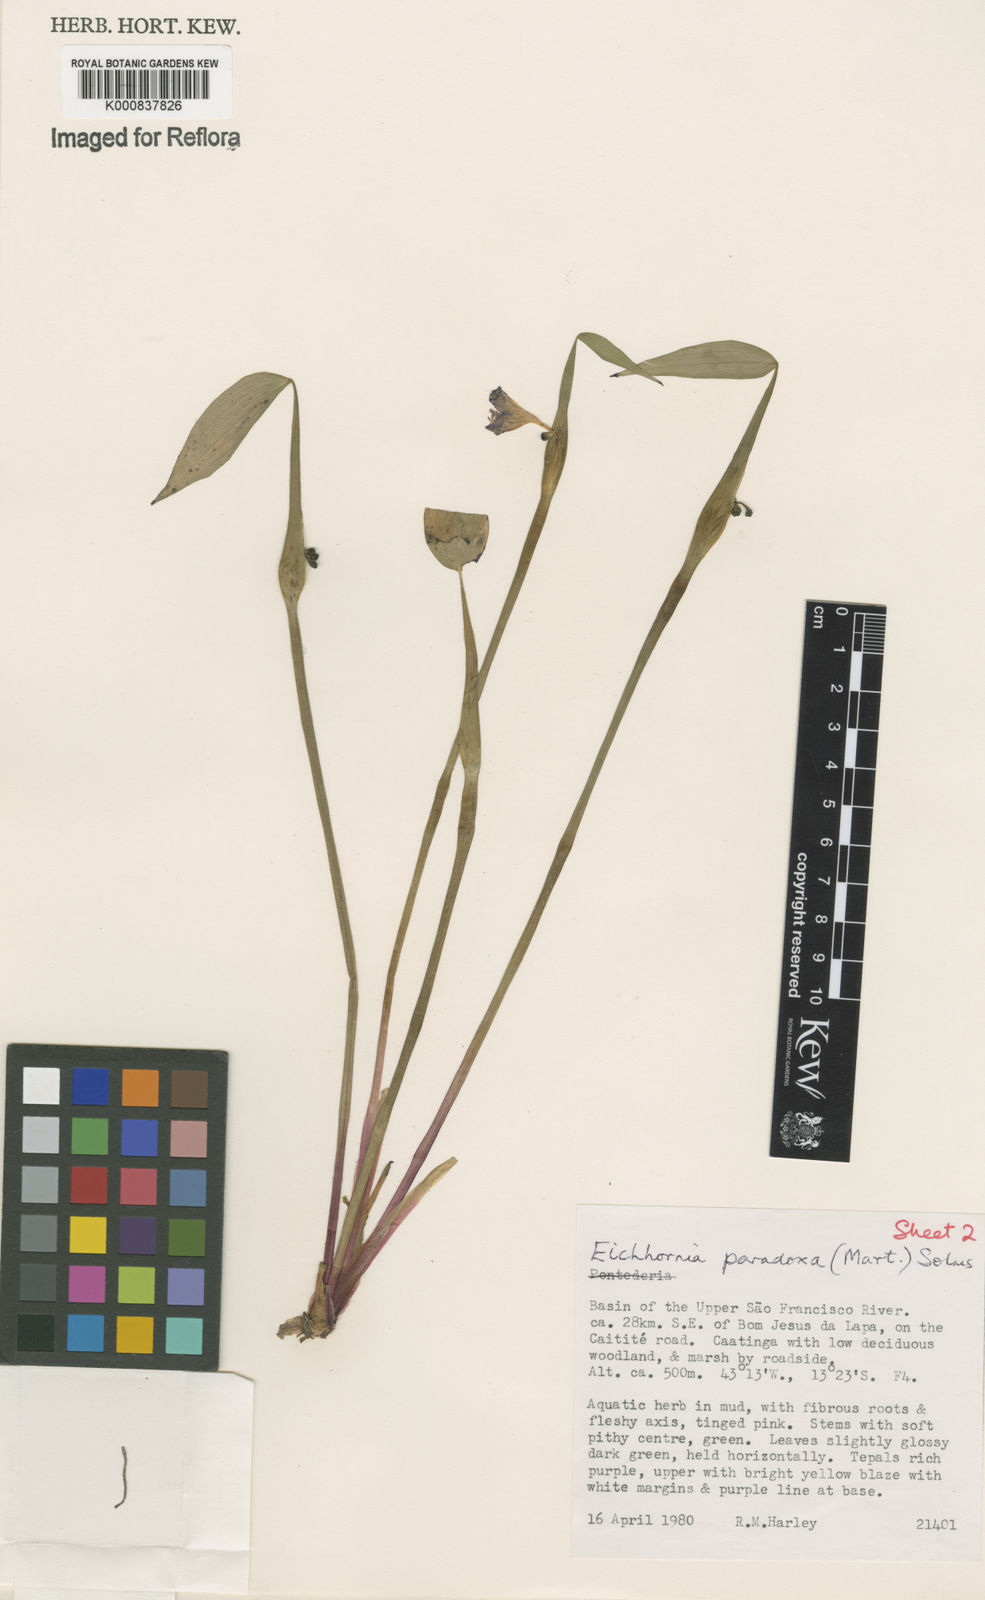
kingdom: Plantae
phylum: Tracheophyta
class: Liliopsida
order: Commelinales
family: Pontederiaceae
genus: Pontederia
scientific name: Pontederia
